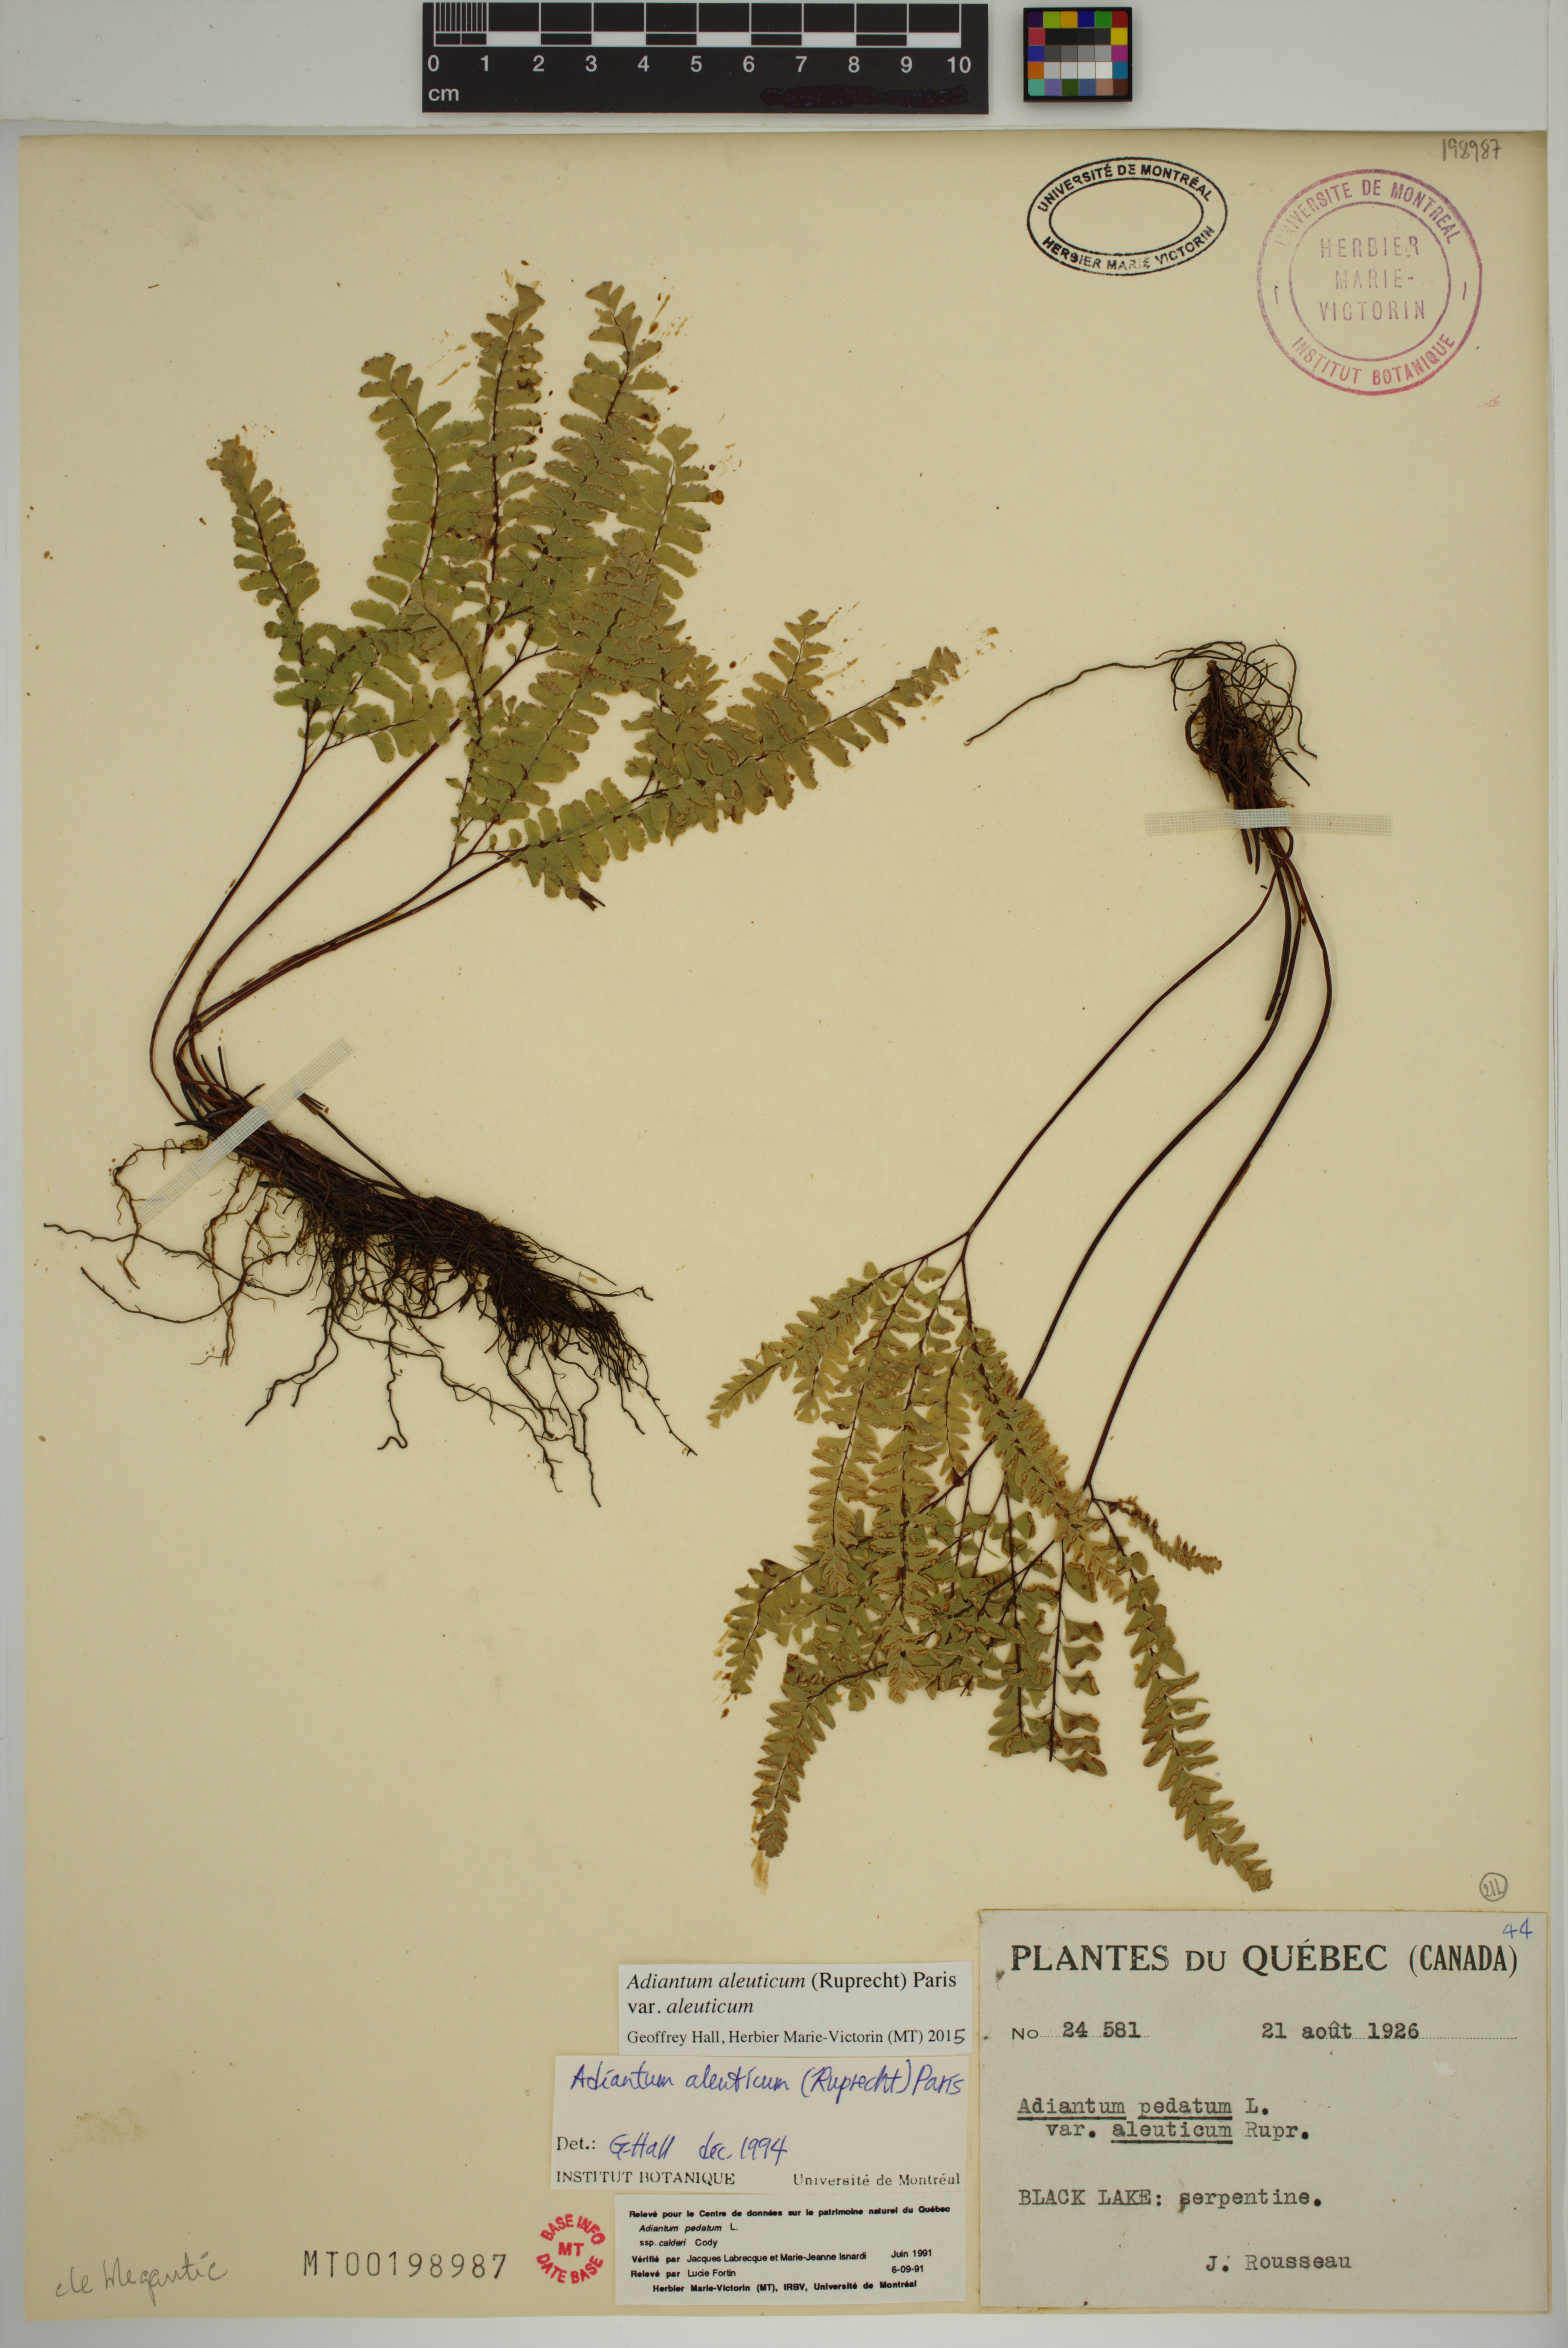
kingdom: Plantae
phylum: Tracheophyta
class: Polypodiopsida
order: Polypodiales
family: Pteridaceae
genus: Adiantum
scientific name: Adiantum aleuticum
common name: Aleutian maidenhair fern
